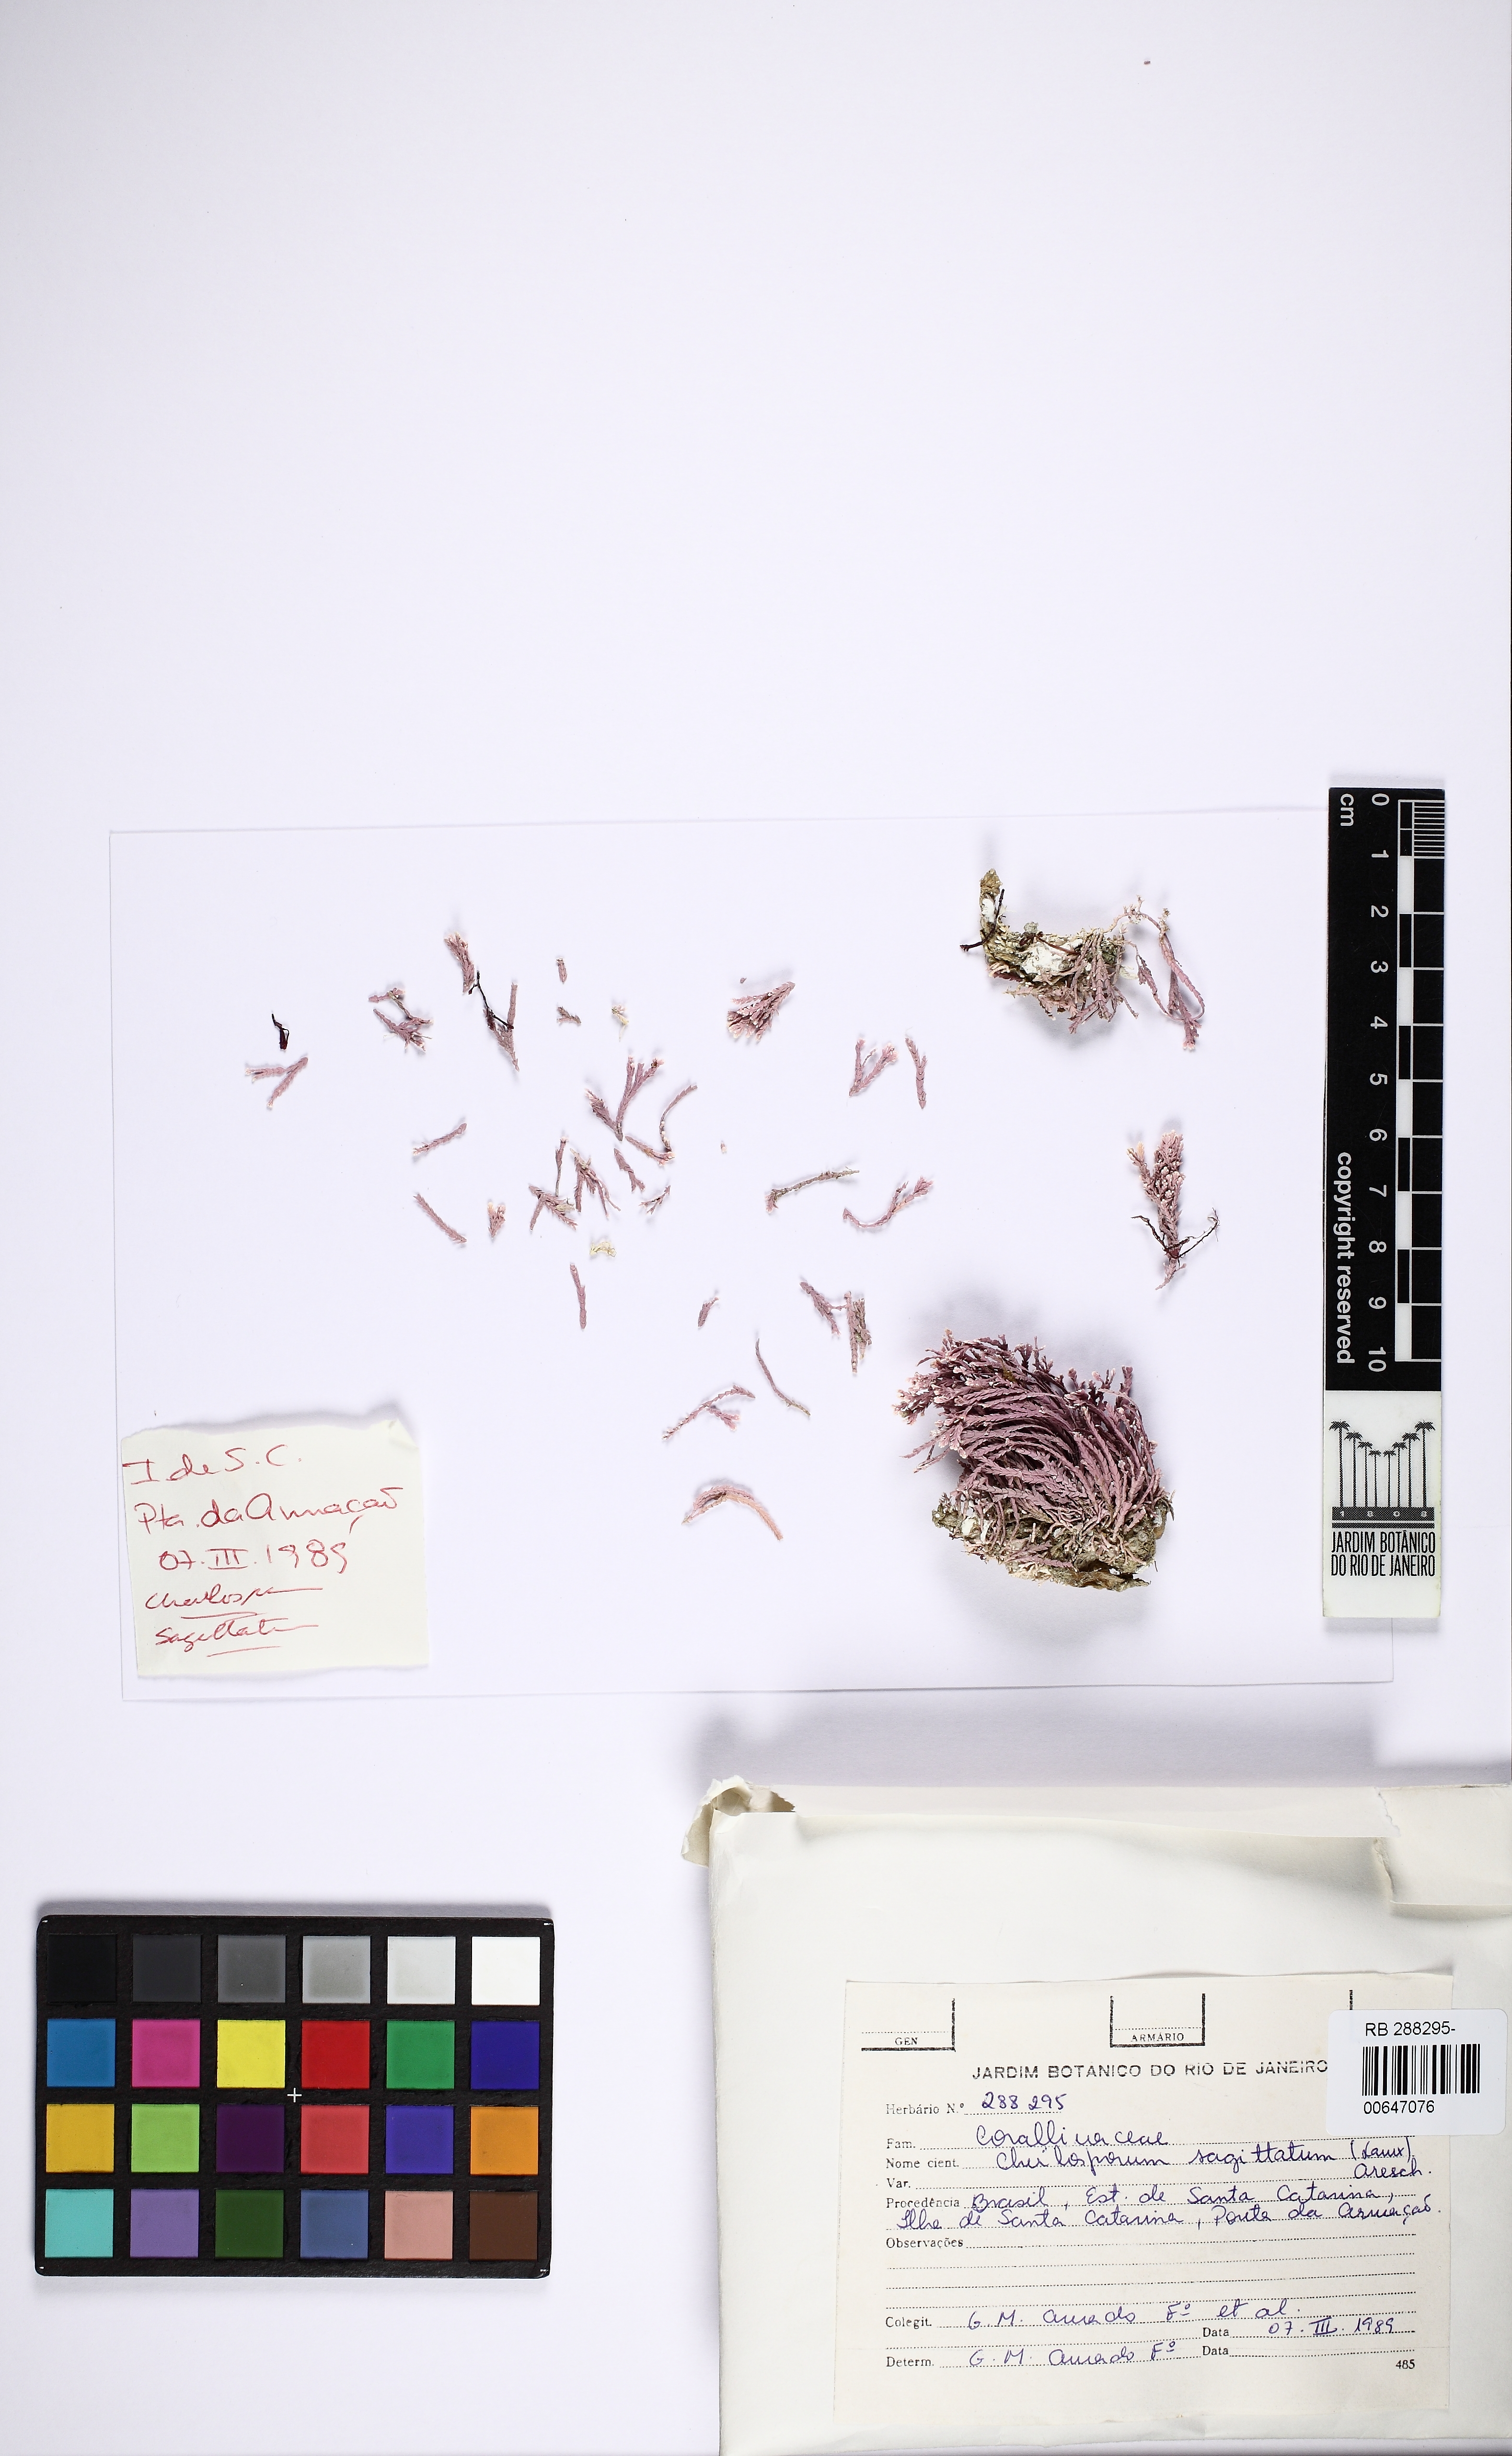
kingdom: Plantae
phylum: Rhodophyta
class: Florideophyceae
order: Corallinales
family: Corallinaceae
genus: Jania
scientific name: Jania sagittata
